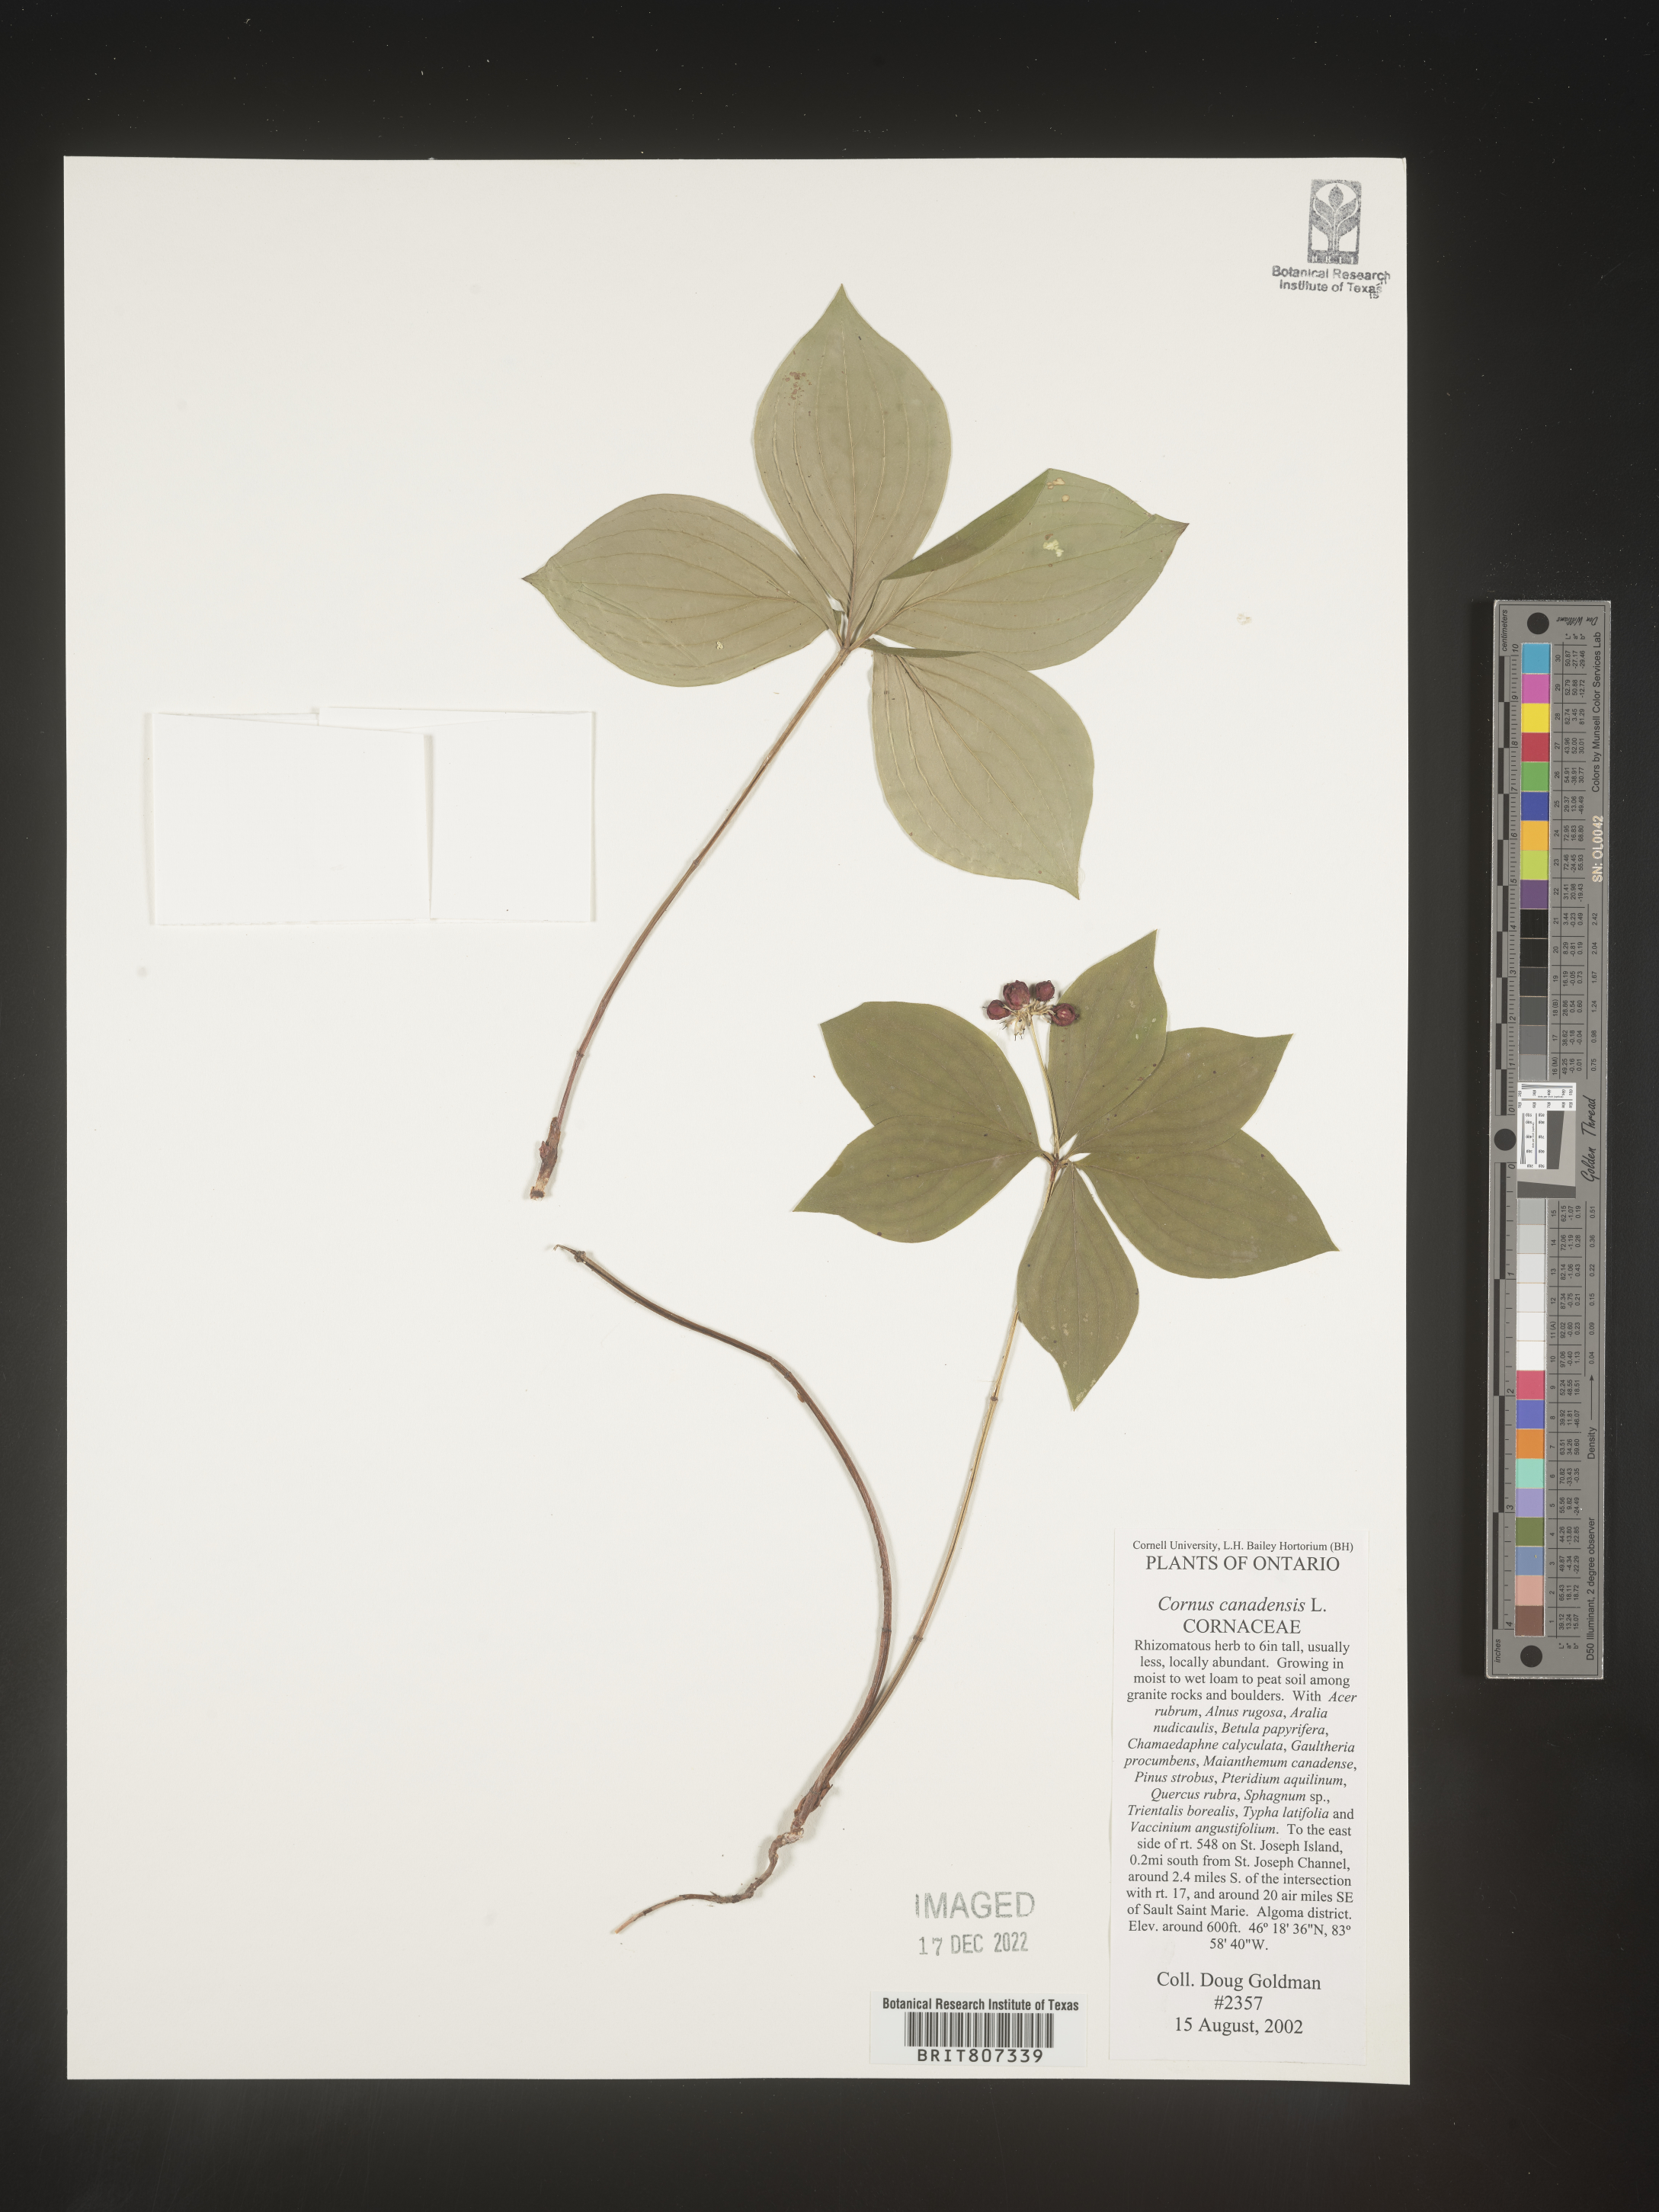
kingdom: Plantae
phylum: Tracheophyta
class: Magnoliopsida
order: Cornales
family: Cornaceae
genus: Cornus
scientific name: Cornus canadensis
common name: Creeping dogwood
